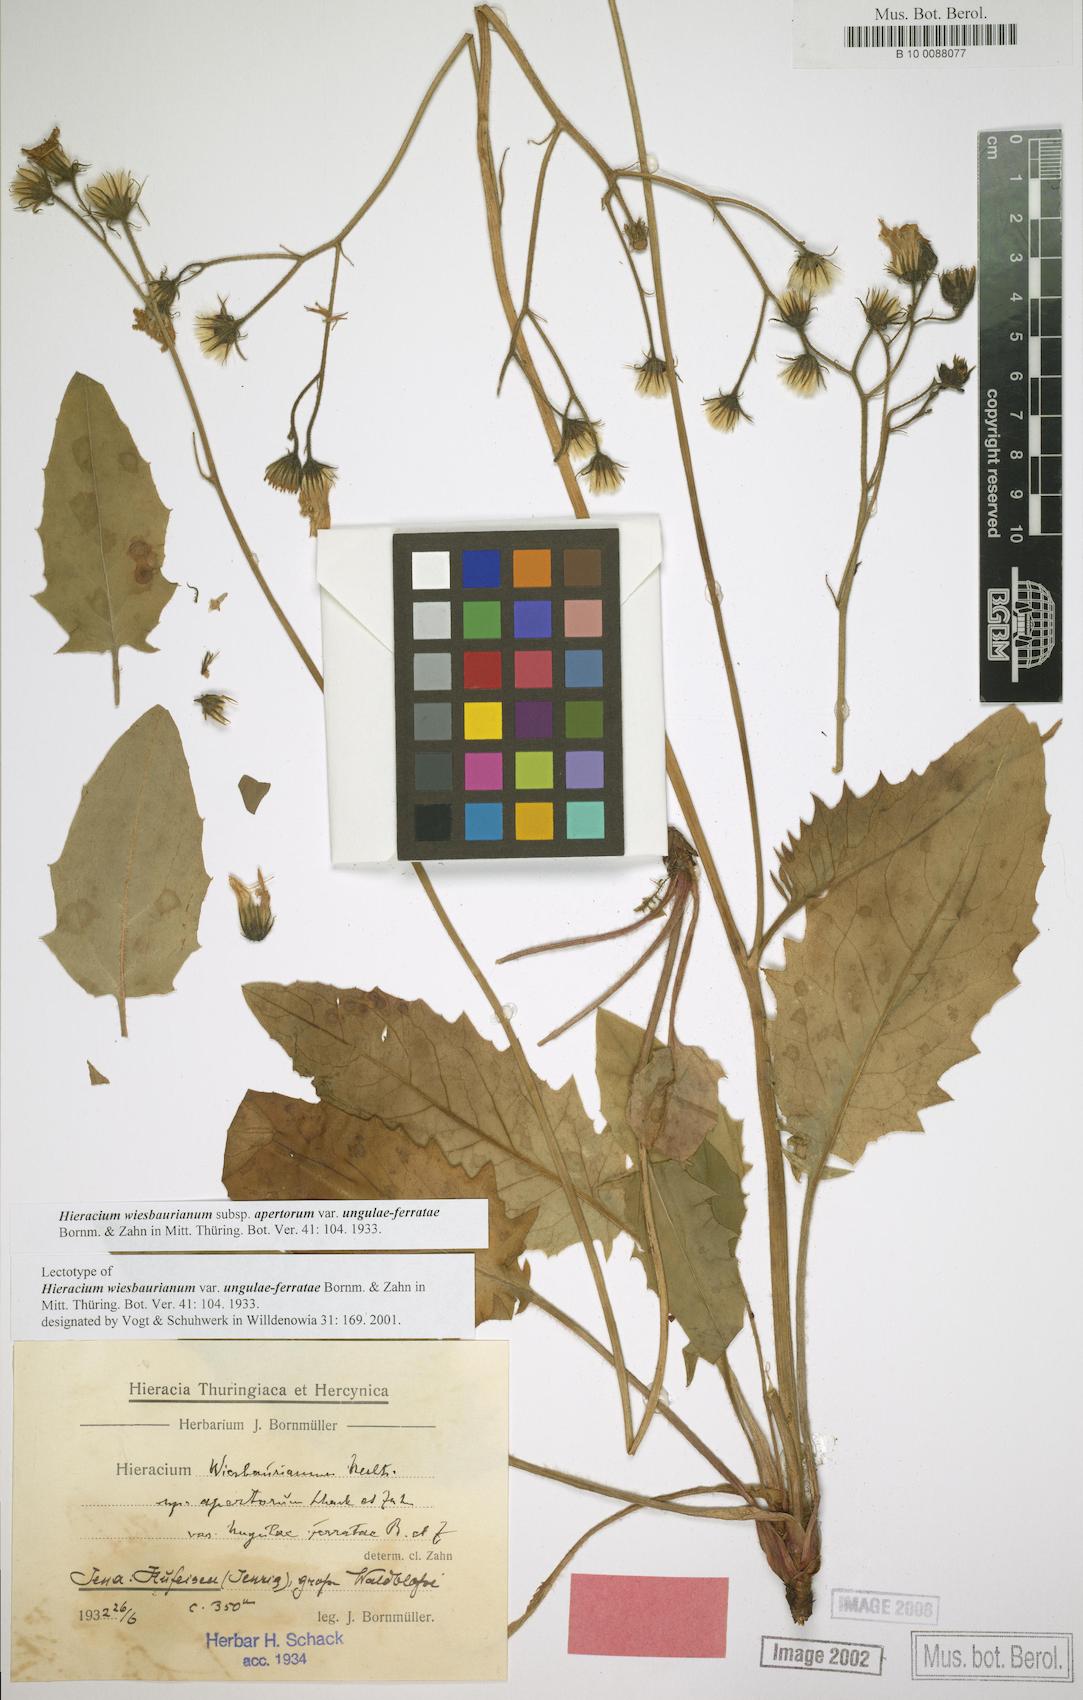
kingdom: Plantae
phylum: Tracheophyta
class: Magnoliopsida
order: Asterales
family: Asteraceae
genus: Hieracium
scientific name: Hieracium hypochoeroides
